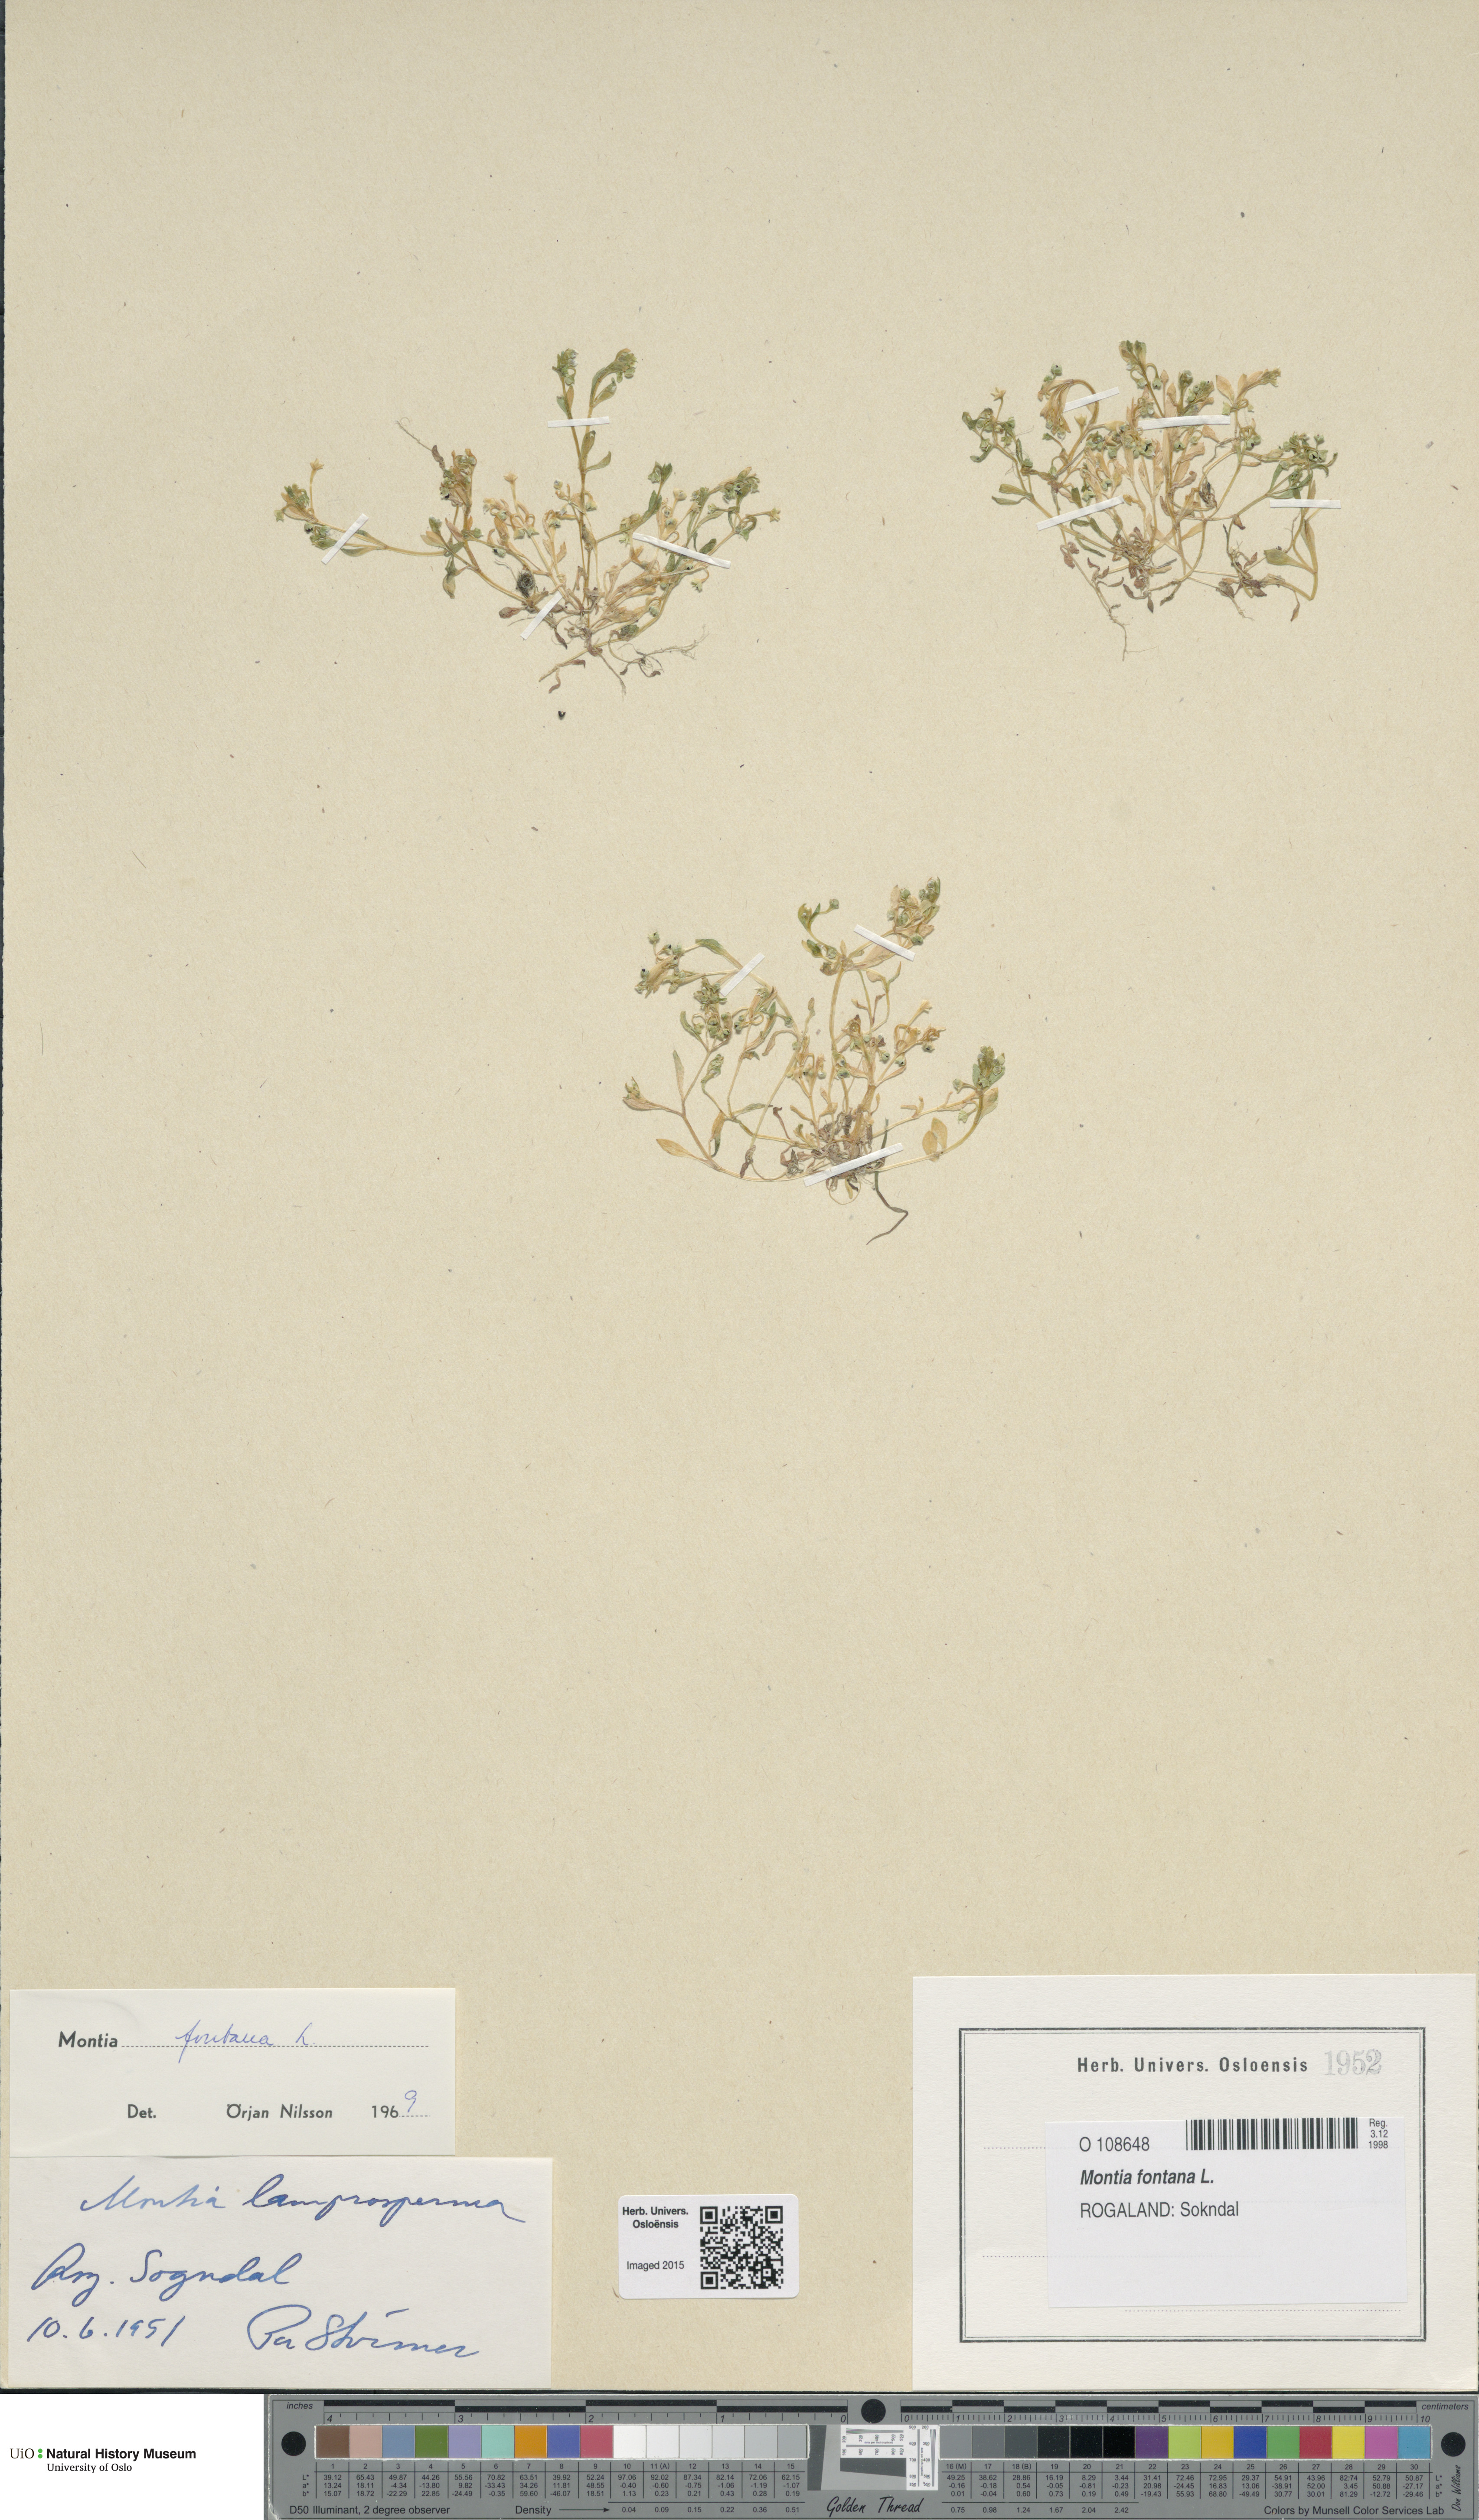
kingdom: Plantae
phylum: Tracheophyta
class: Magnoliopsida
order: Caryophyllales
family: Montiaceae
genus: Montia
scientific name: Montia fontana
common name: Blinks
